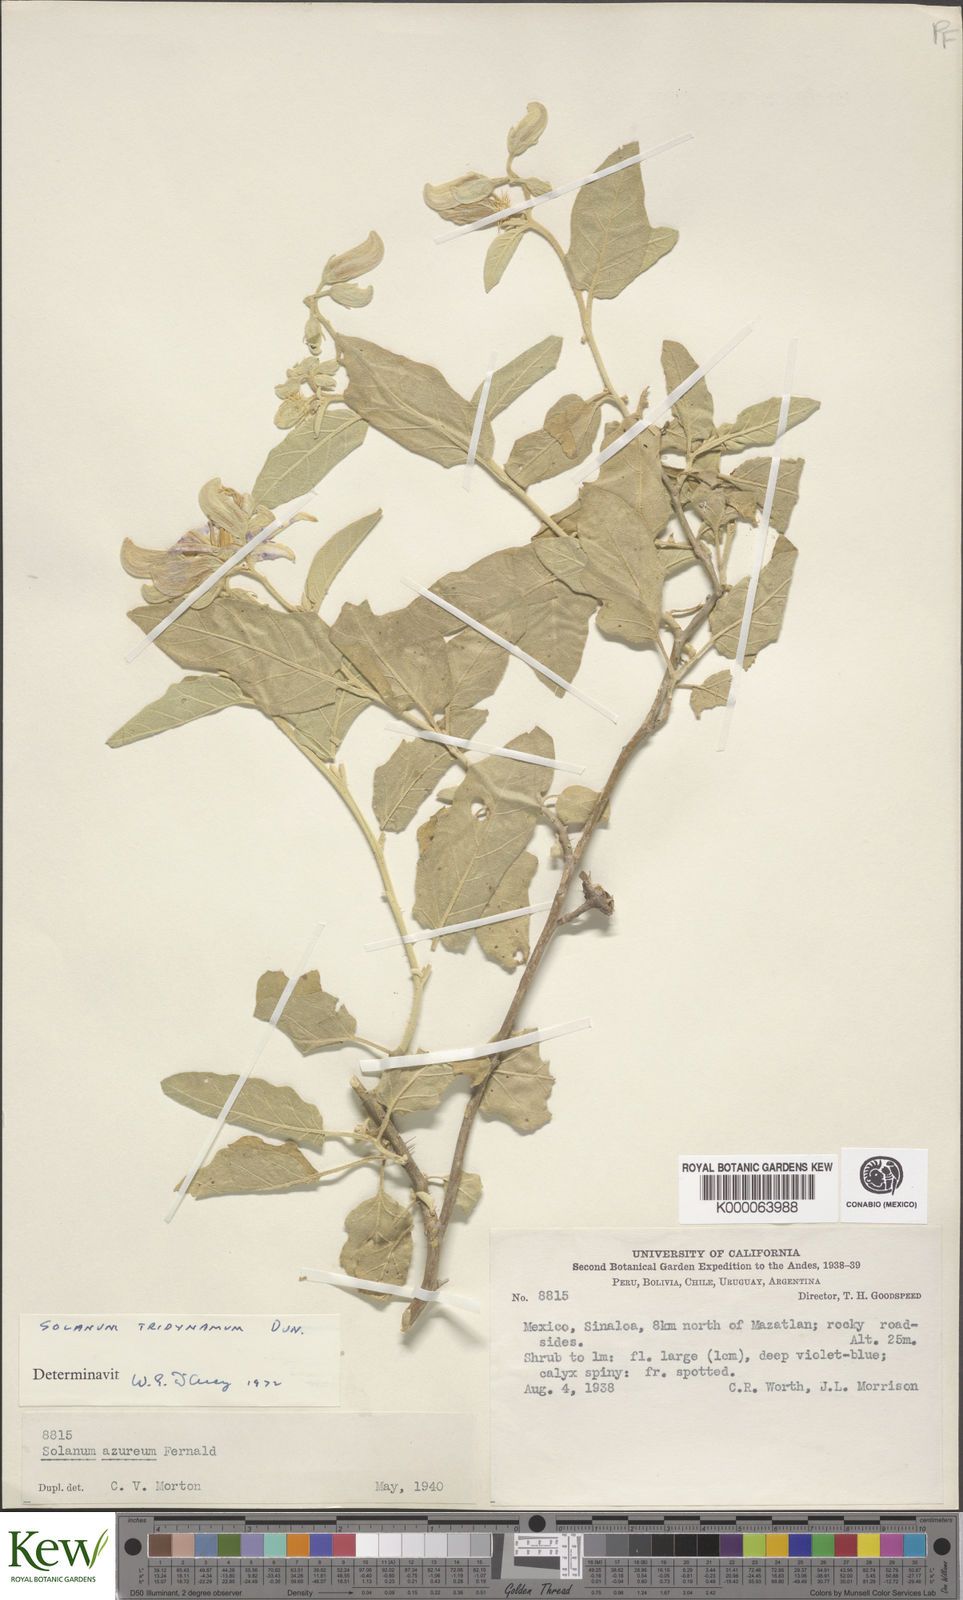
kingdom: Plantae
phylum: Tracheophyta
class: Magnoliopsida
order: Solanales
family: Solanaceae
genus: Solanum
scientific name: Solanum houstonii
